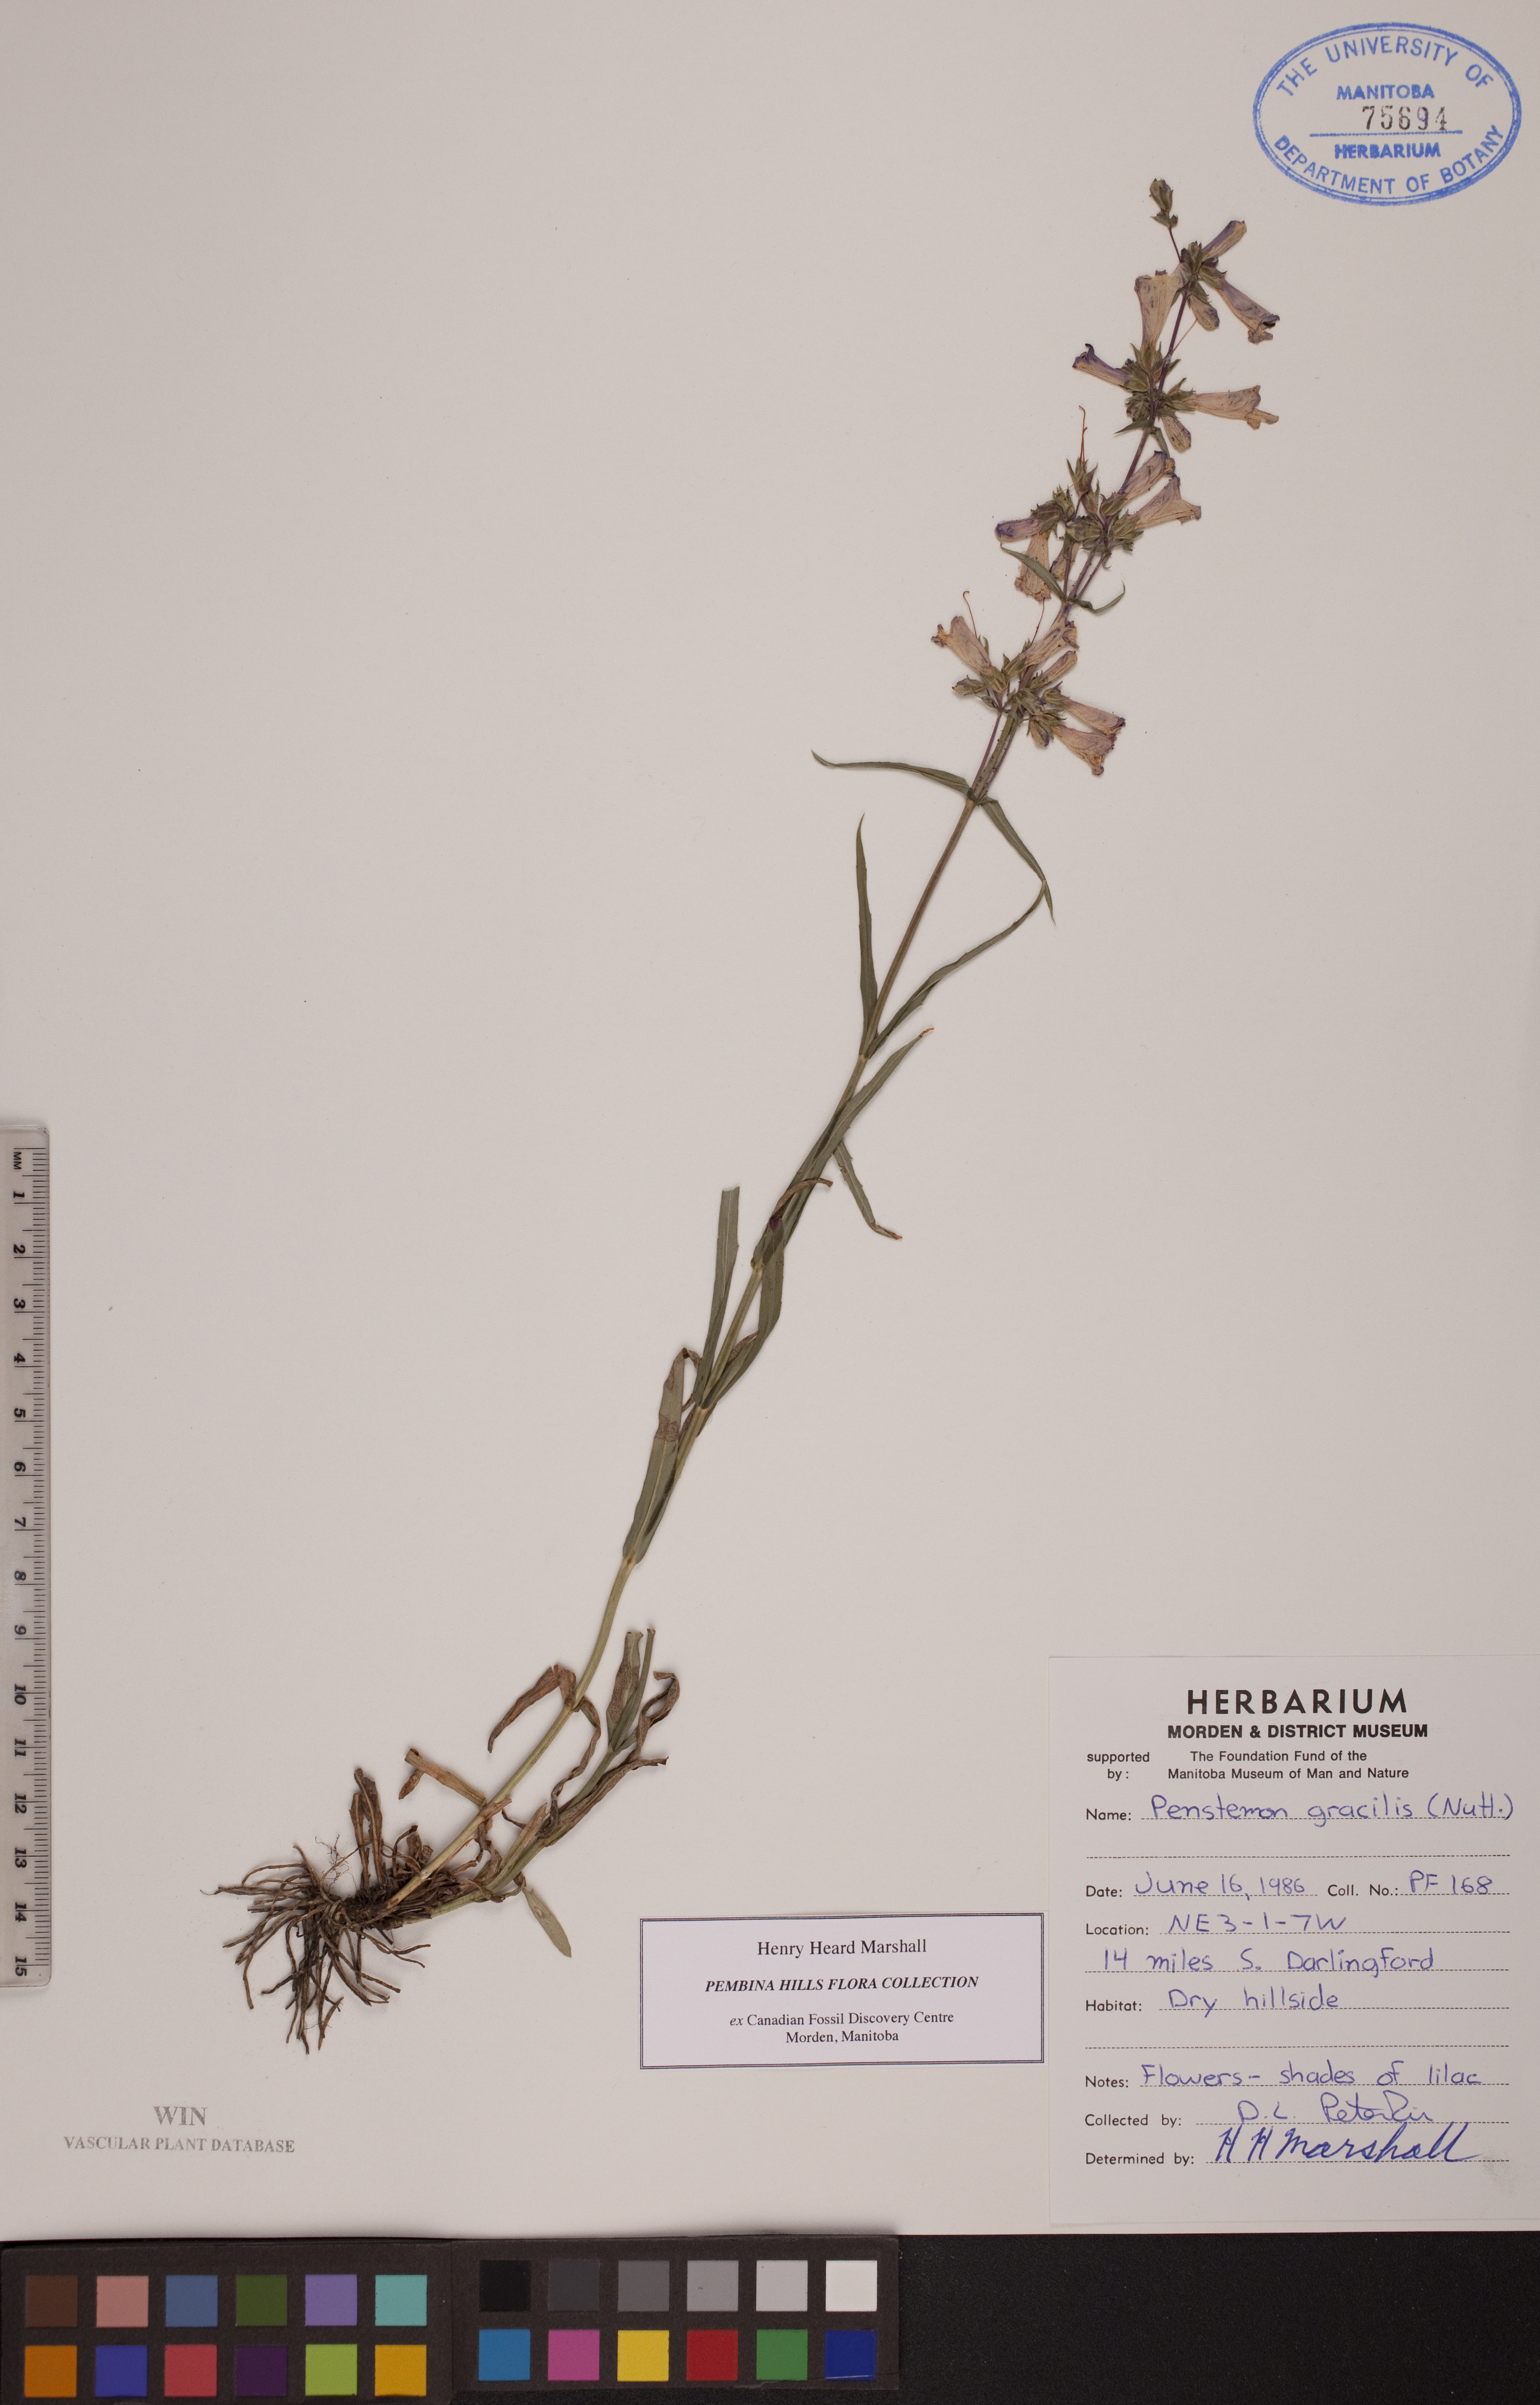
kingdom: Plantae
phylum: Tracheophyta
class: Magnoliopsida
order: Lamiales
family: Plantaginaceae
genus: Penstemon
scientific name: Penstemon gracilis
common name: Slender beardtongue
